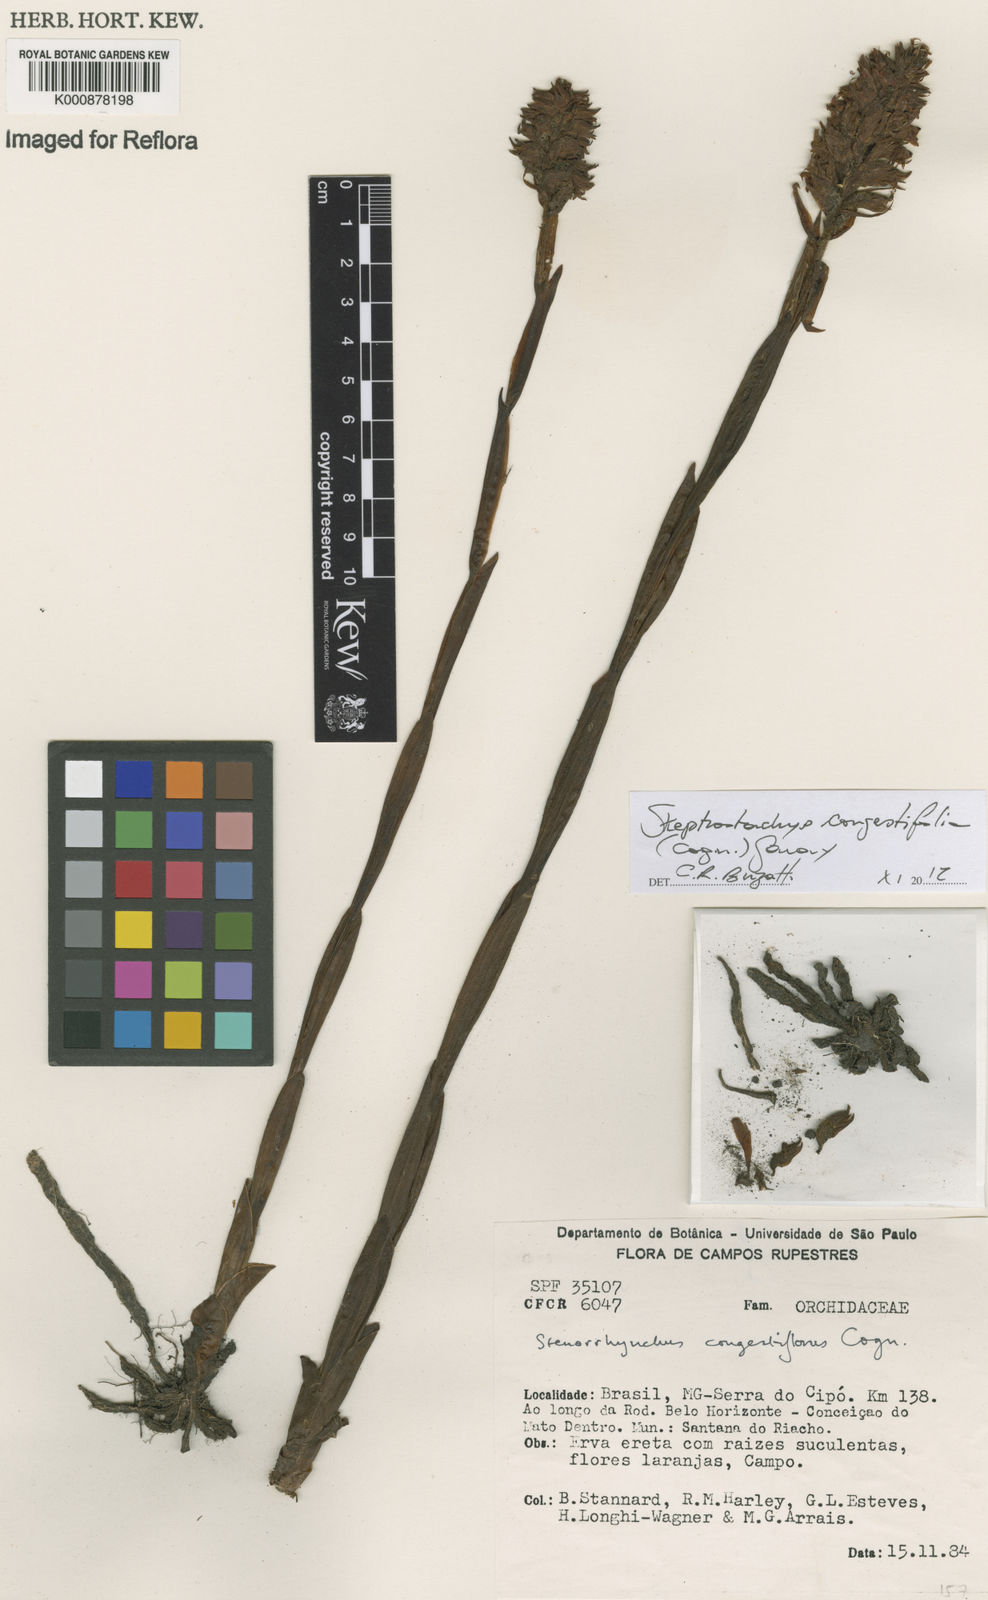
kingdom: Plantae
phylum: Tracheophyta
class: Liliopsida
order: Asparagales
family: Orchidaceae
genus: Skeptrostachys
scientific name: Skeptrostachys congestiflora
